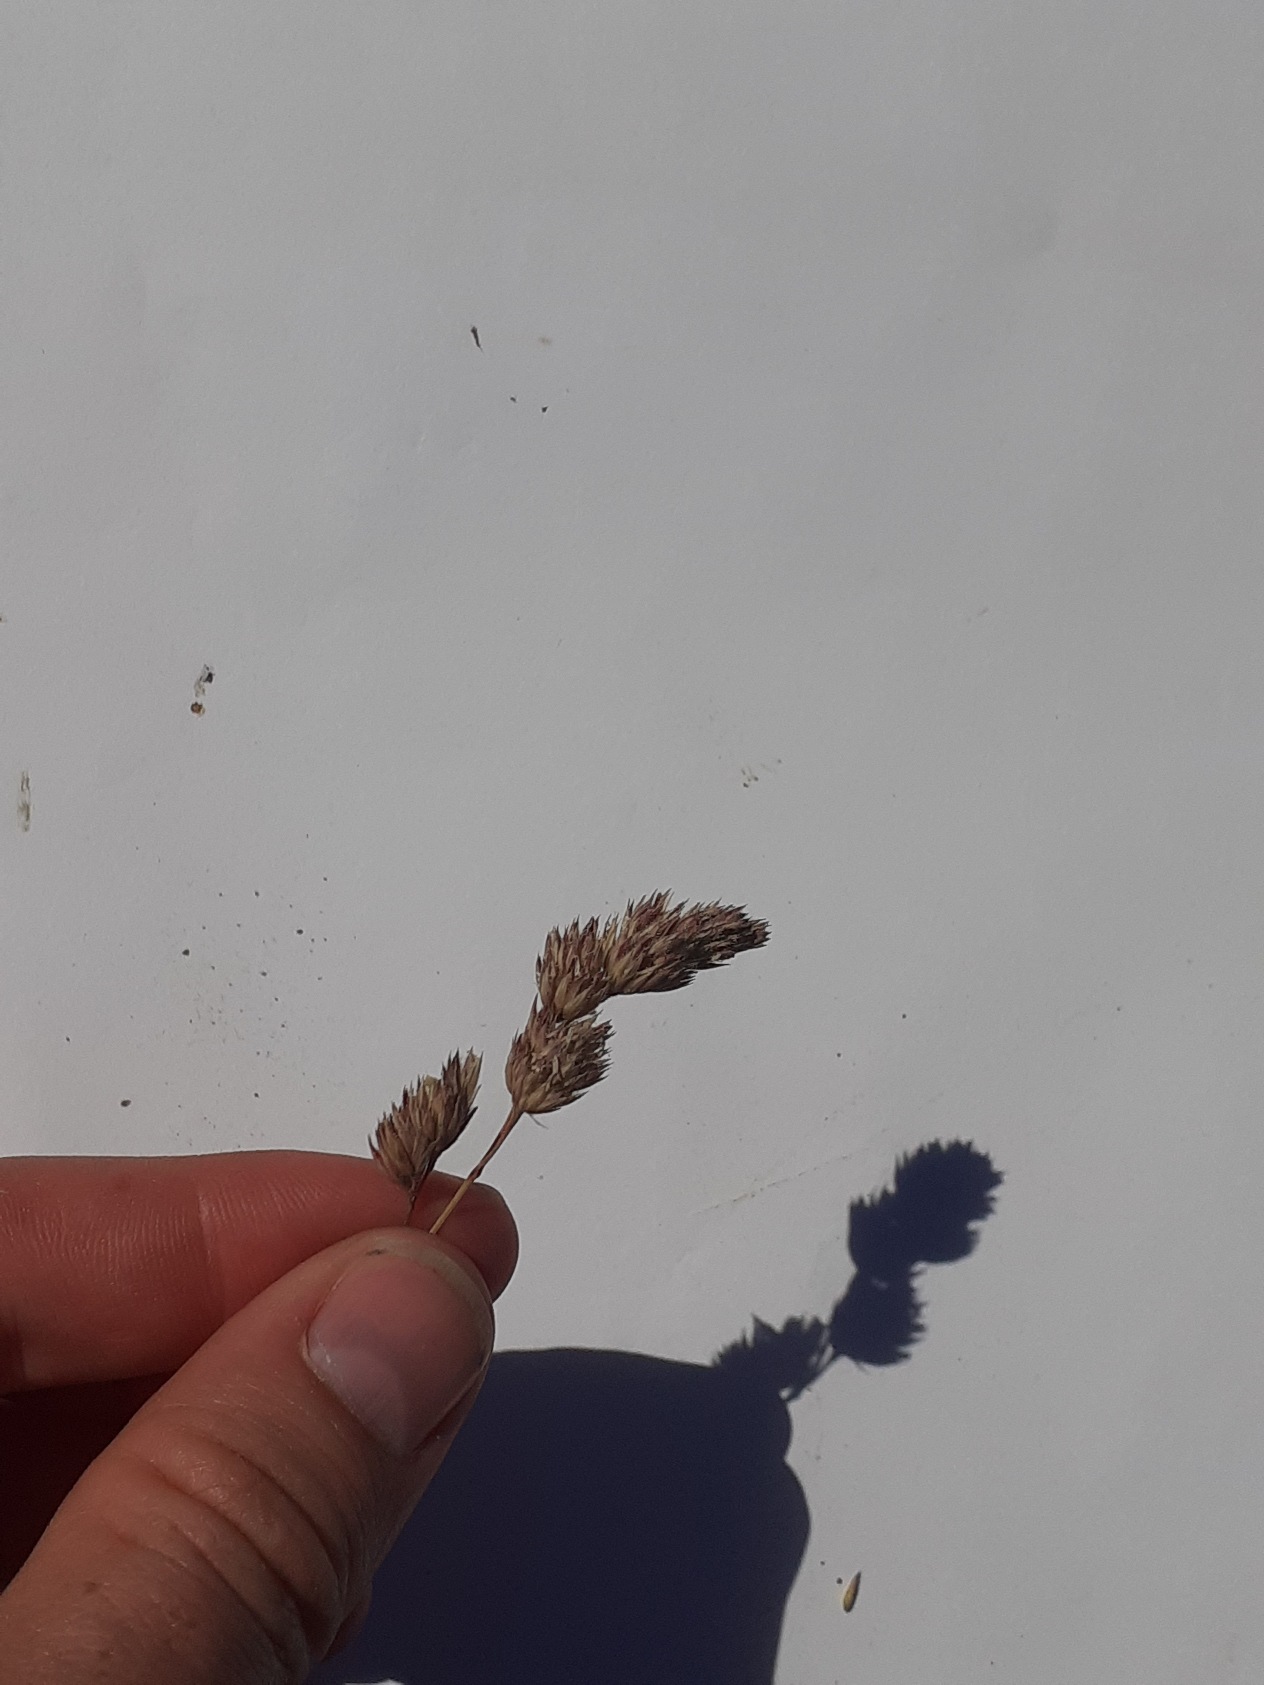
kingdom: Plantae
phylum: Tracheophyta
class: Liliopsida
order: Poales
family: Poaceae
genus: Dactylis
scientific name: Dactylis glomerata
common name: Almindelig hundegræs
